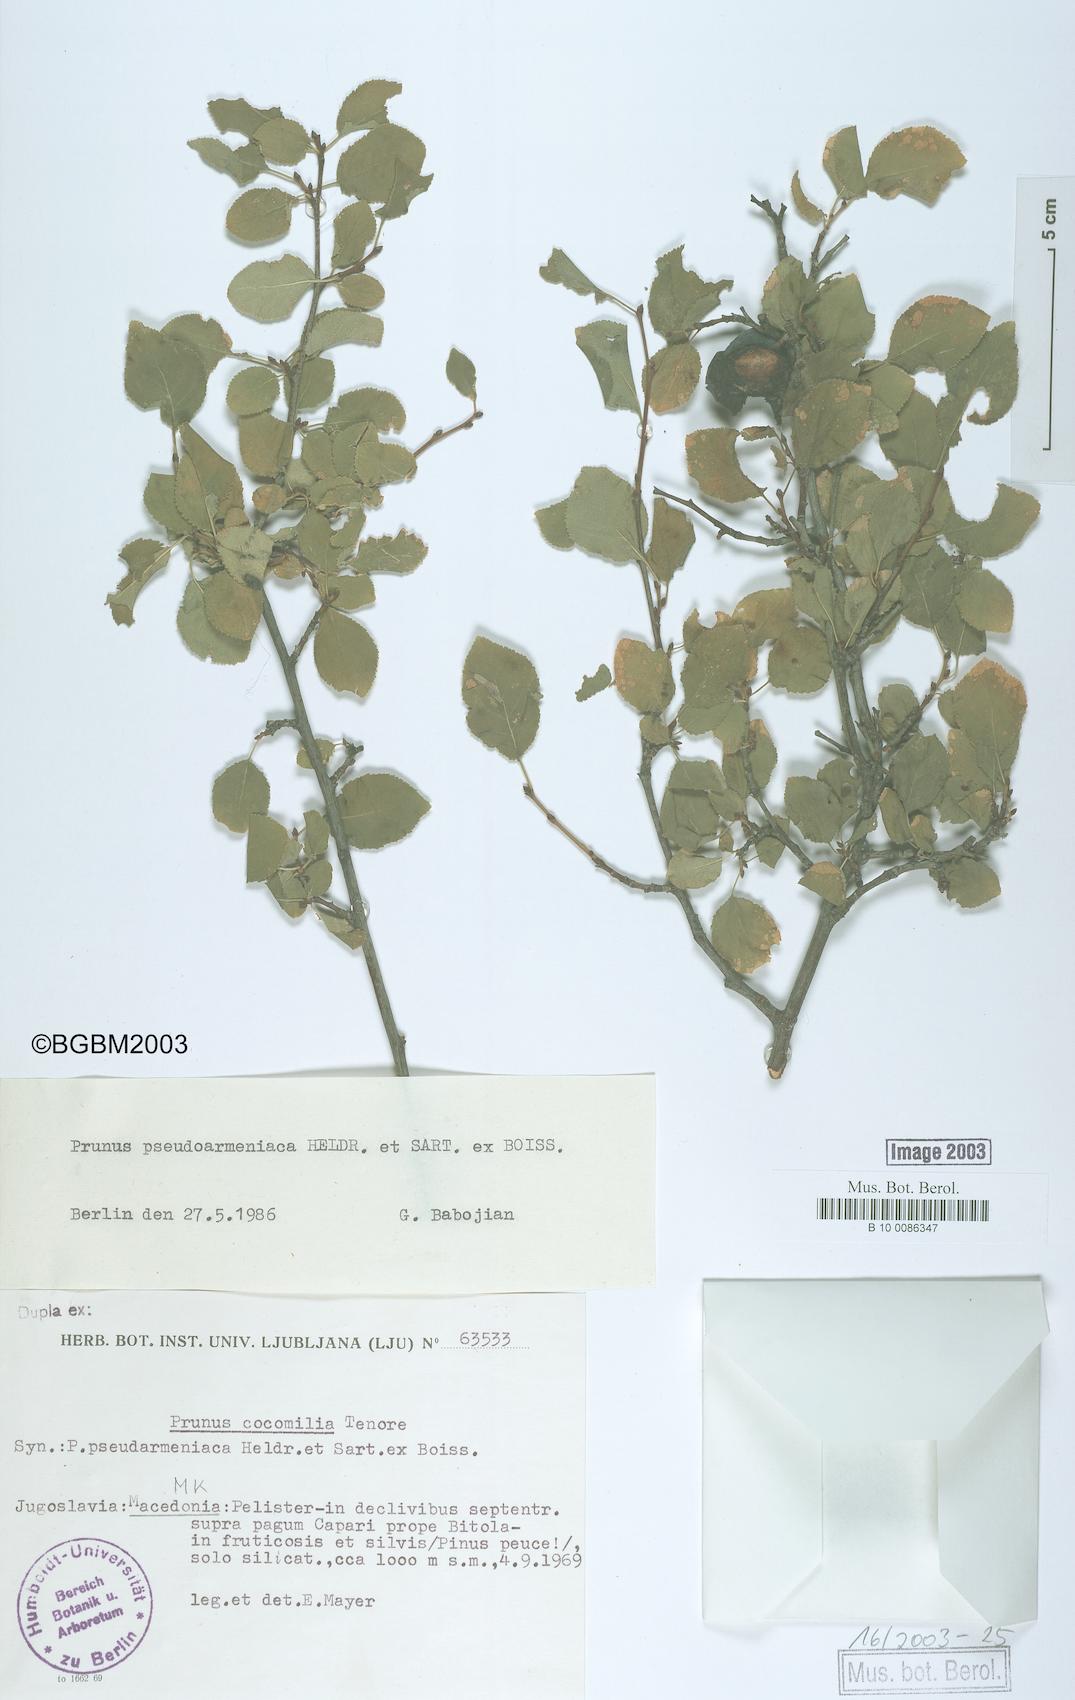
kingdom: Plantae
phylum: Tracheophyta
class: Magnoliopsida
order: Rosales
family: Rosaceae
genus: Prunus
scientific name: Prunus cocomilia
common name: Italian plum
